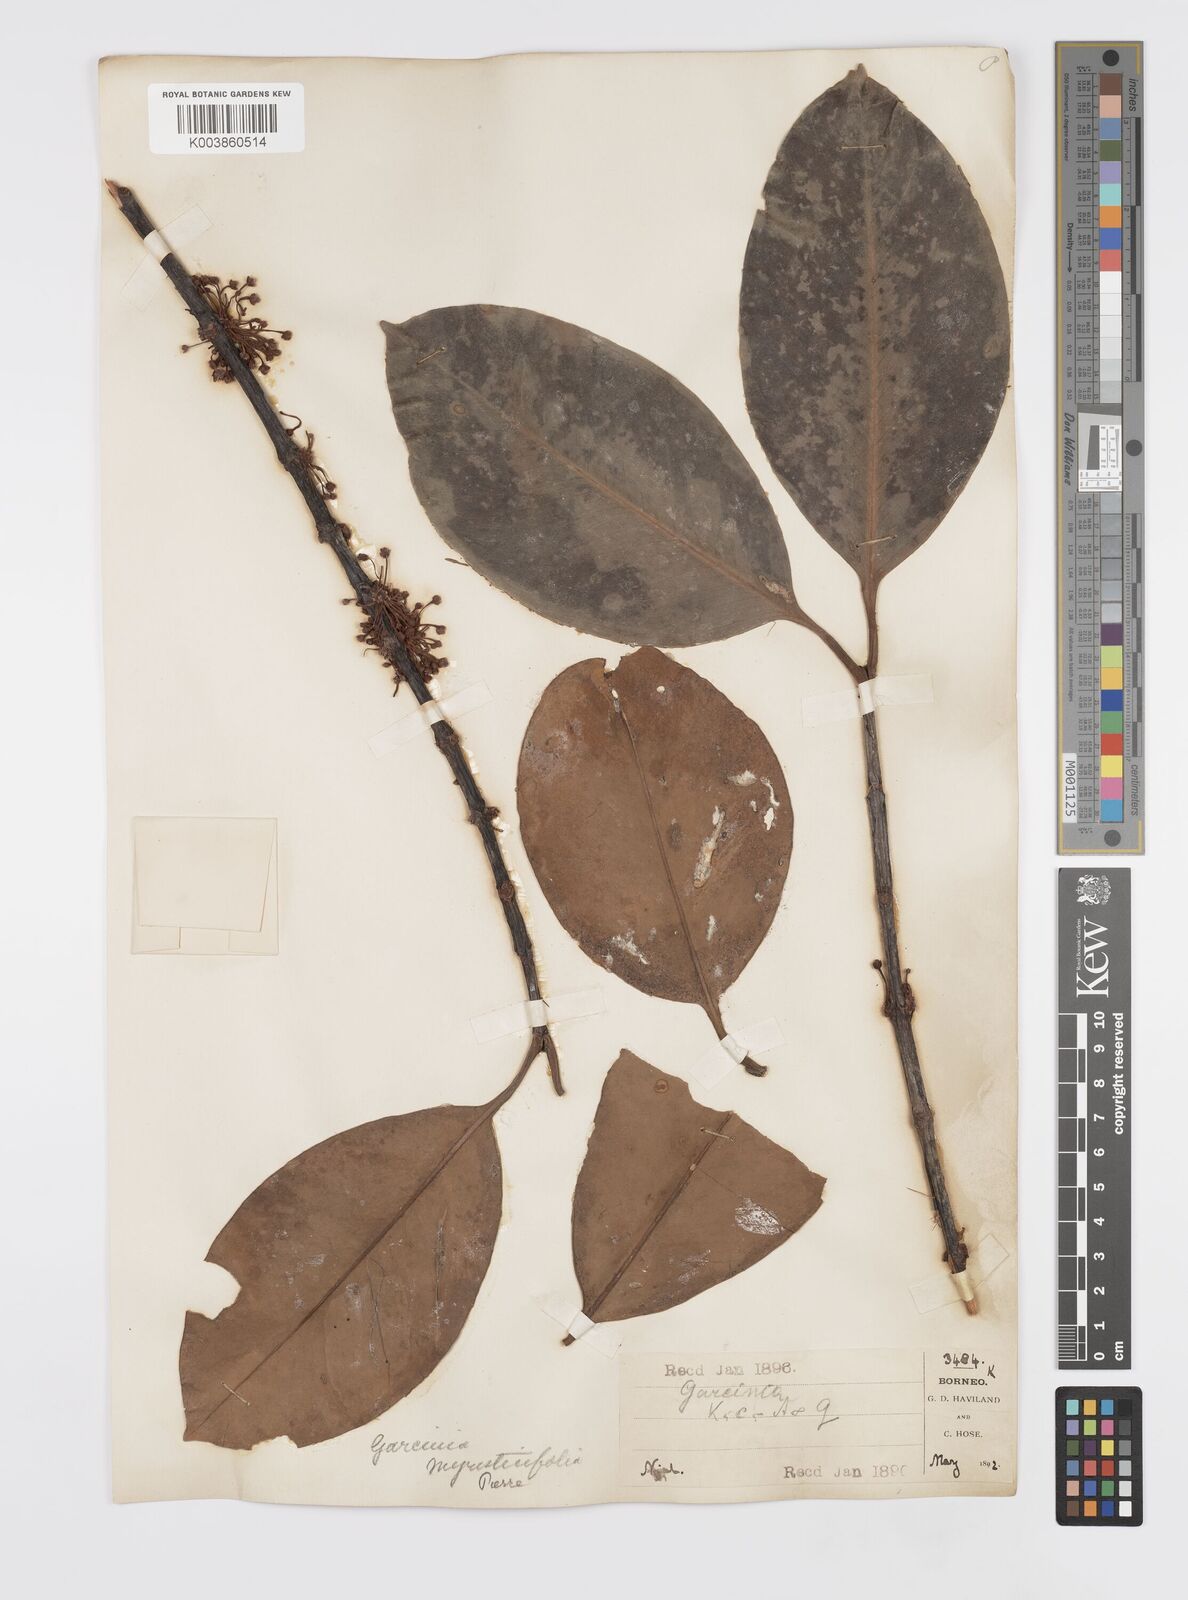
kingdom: Plantae
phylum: Tracheophyta
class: Magnoliopsida
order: Malpighiales
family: Clusiaceae
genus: Garcinia
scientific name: Garcinia bancana
